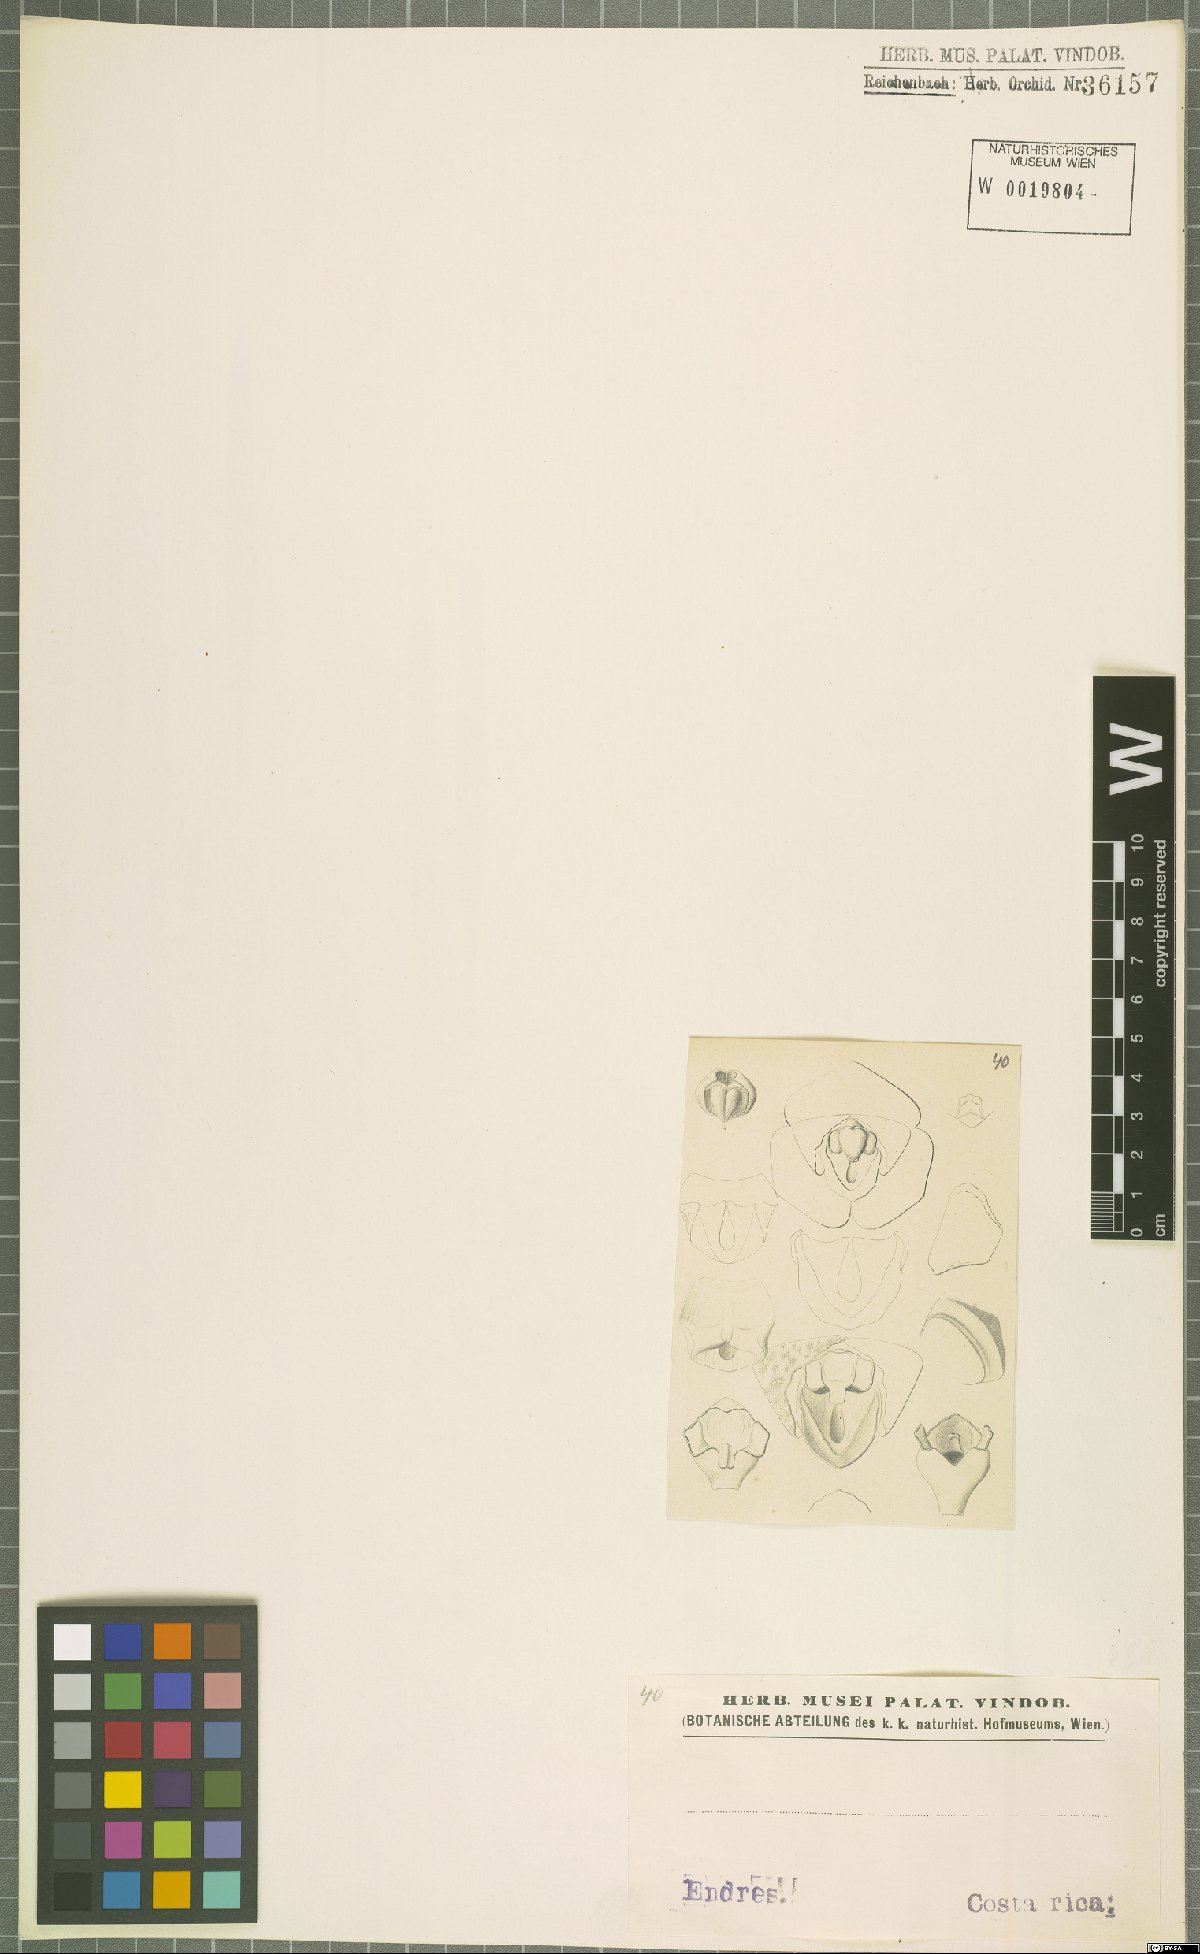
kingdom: Plantae
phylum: Tracheophyta
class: Liliopsida
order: Asparagales
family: Orchidaceae
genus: Stelis
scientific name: Stelis
